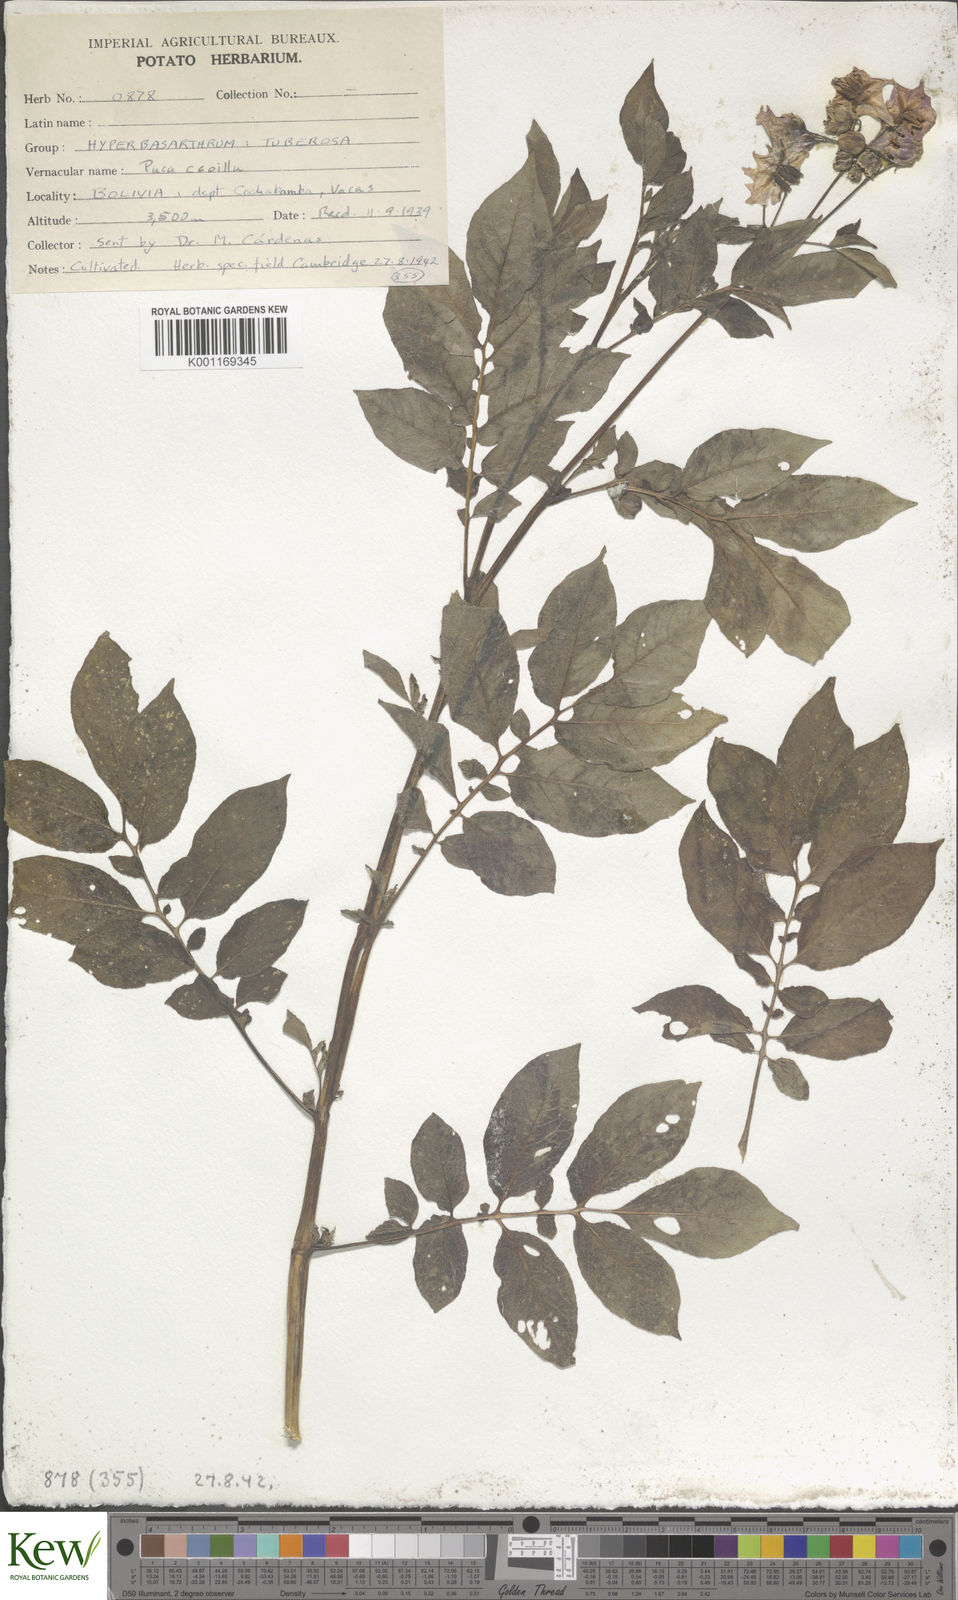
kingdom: Plantae
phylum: Tracheophyta
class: Magnoliopsida
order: Solanales
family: Solanaceae
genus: Solanum
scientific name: Solanum chaucha
